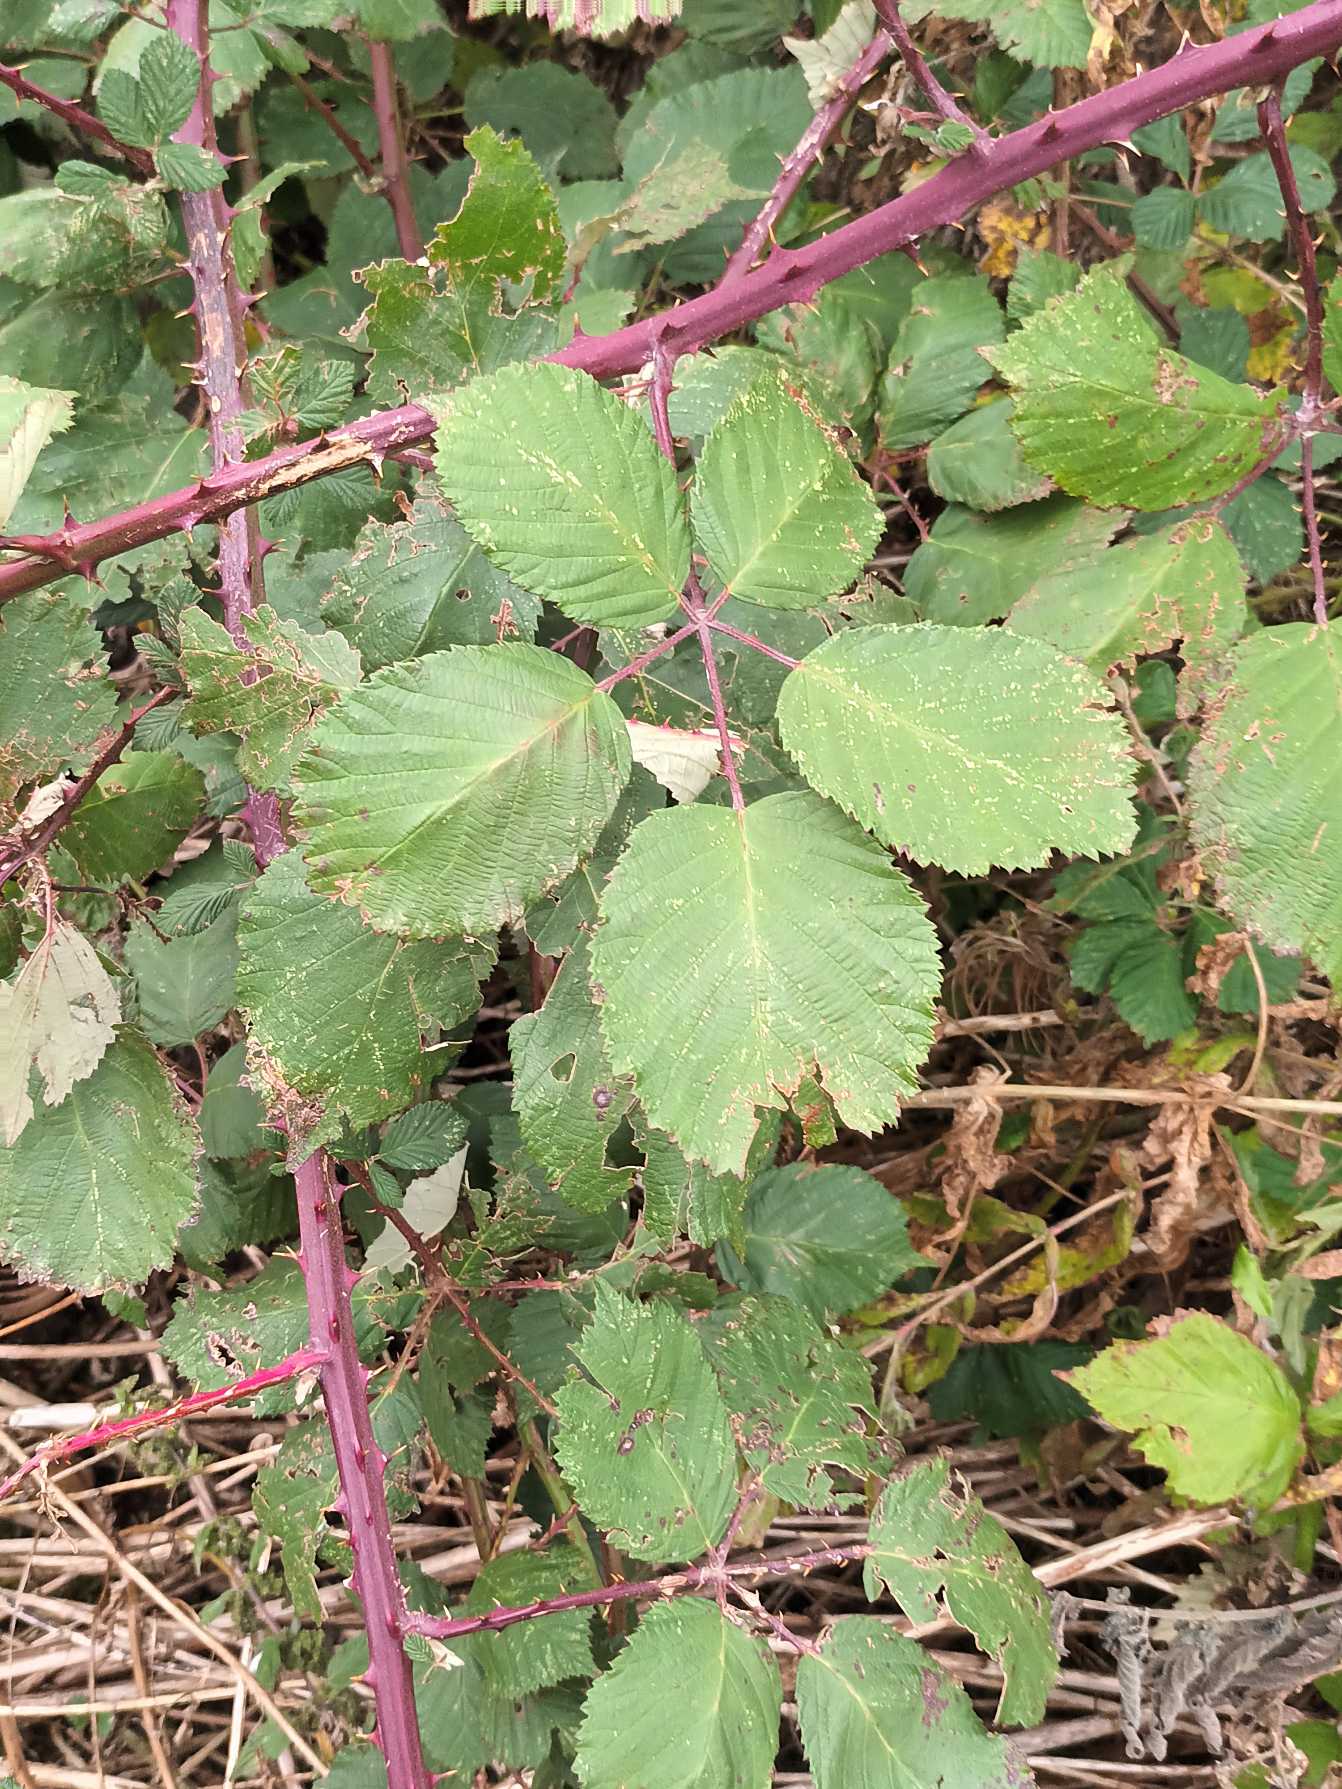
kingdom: Plantae
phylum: Tracheophyta
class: Magnoliopsida
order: Rosales
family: Rosaceae
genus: Rubus
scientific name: Rubus armeniacus
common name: Armensk brombær
